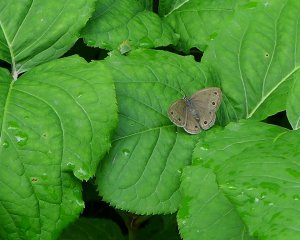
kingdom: Animalia
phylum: Arthropoda
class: Insecta
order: Lepidoptera
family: Nymphalidae
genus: Euptychia
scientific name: Euptychia cymela
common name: Little Wood Satyr
